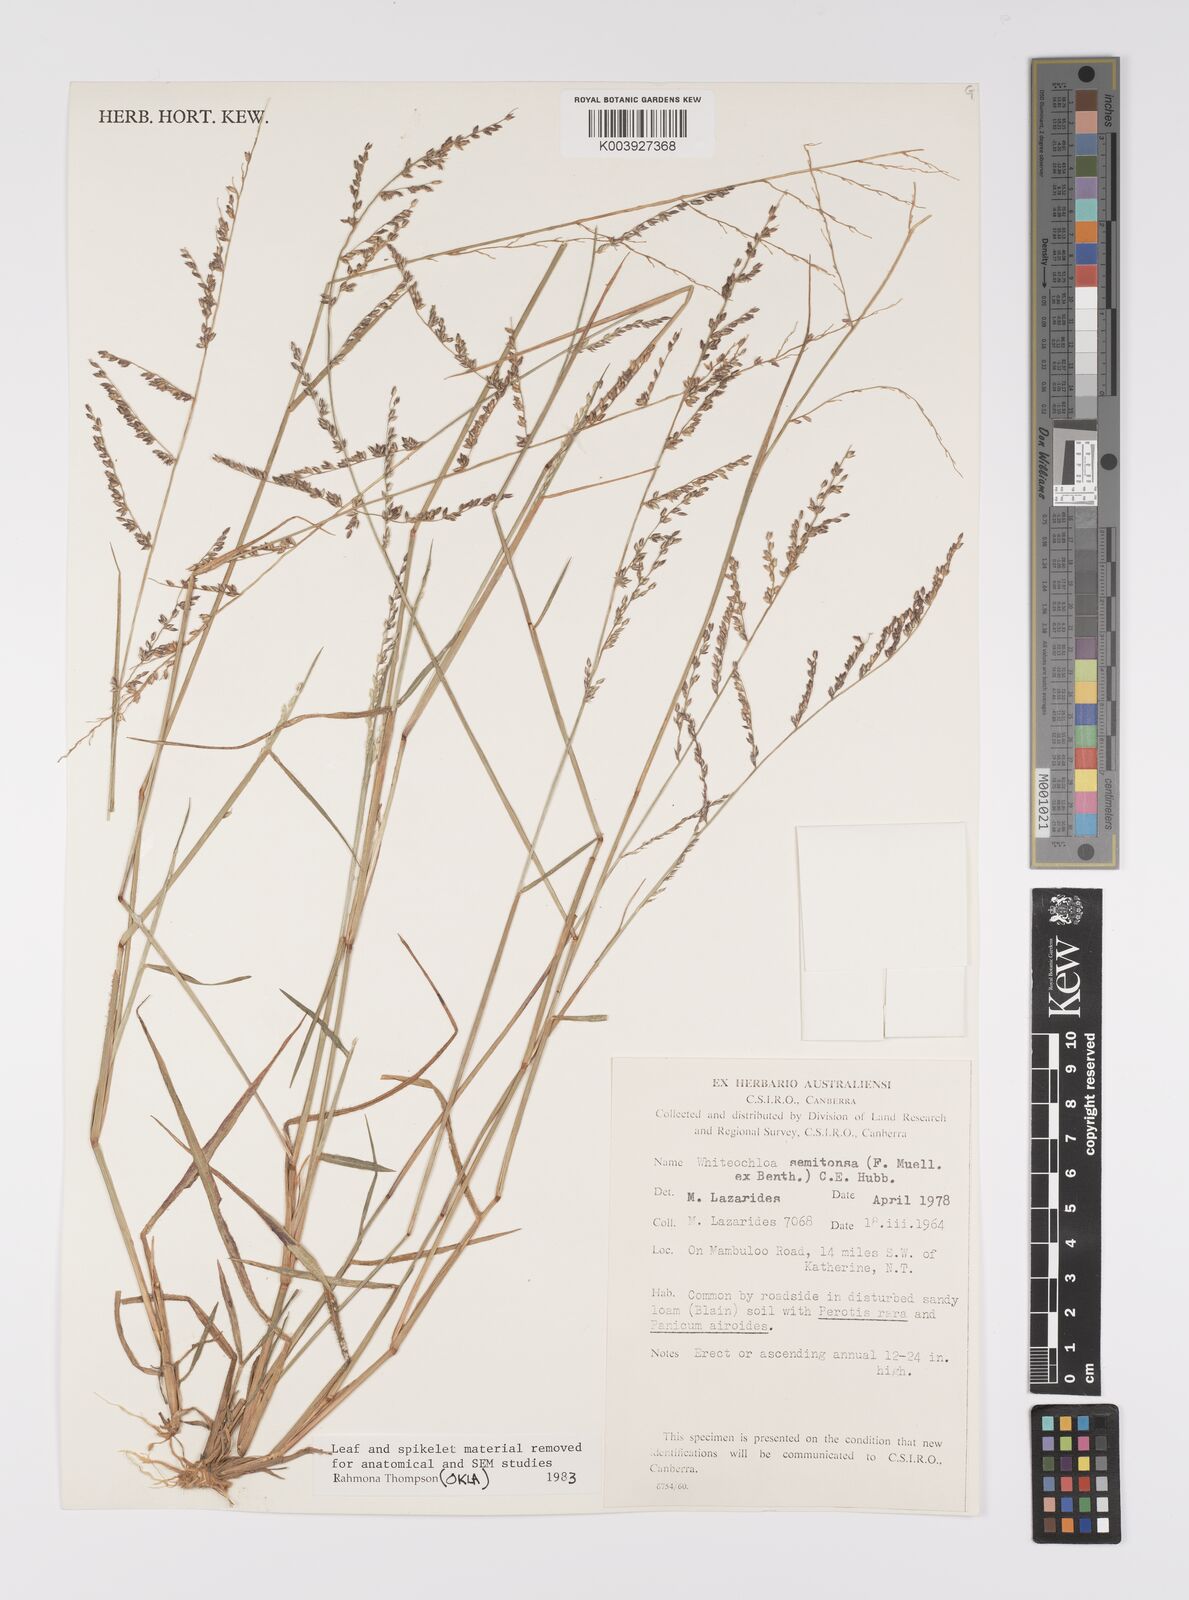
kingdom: Plantae
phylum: Tracheophyta
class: Liliopsida
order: Poales
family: Poaceae
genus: Whiteochloa
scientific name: Whiteochloa semitonsa
